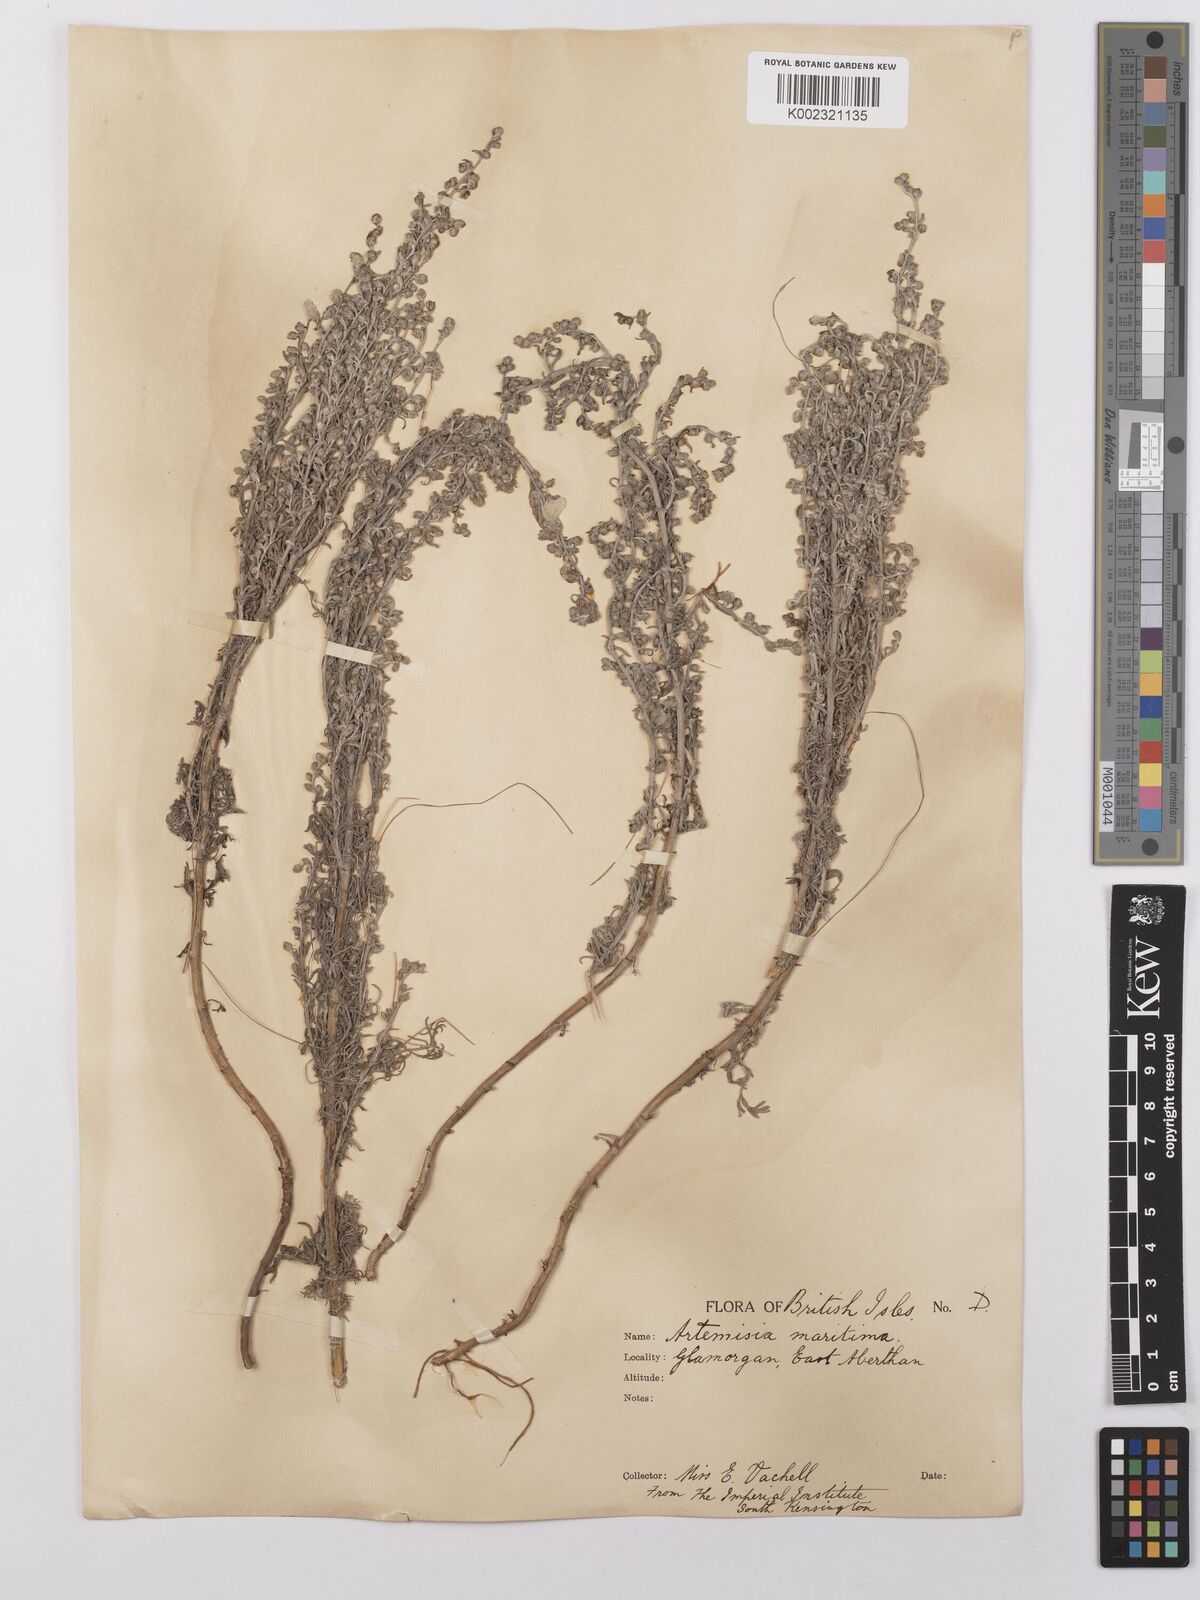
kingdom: Plantae
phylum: Tracheophyta
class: Magnoliopsida
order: Asterales
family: Asteraceae
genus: Artemisia
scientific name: Artemisia maritima
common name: Wormseed
